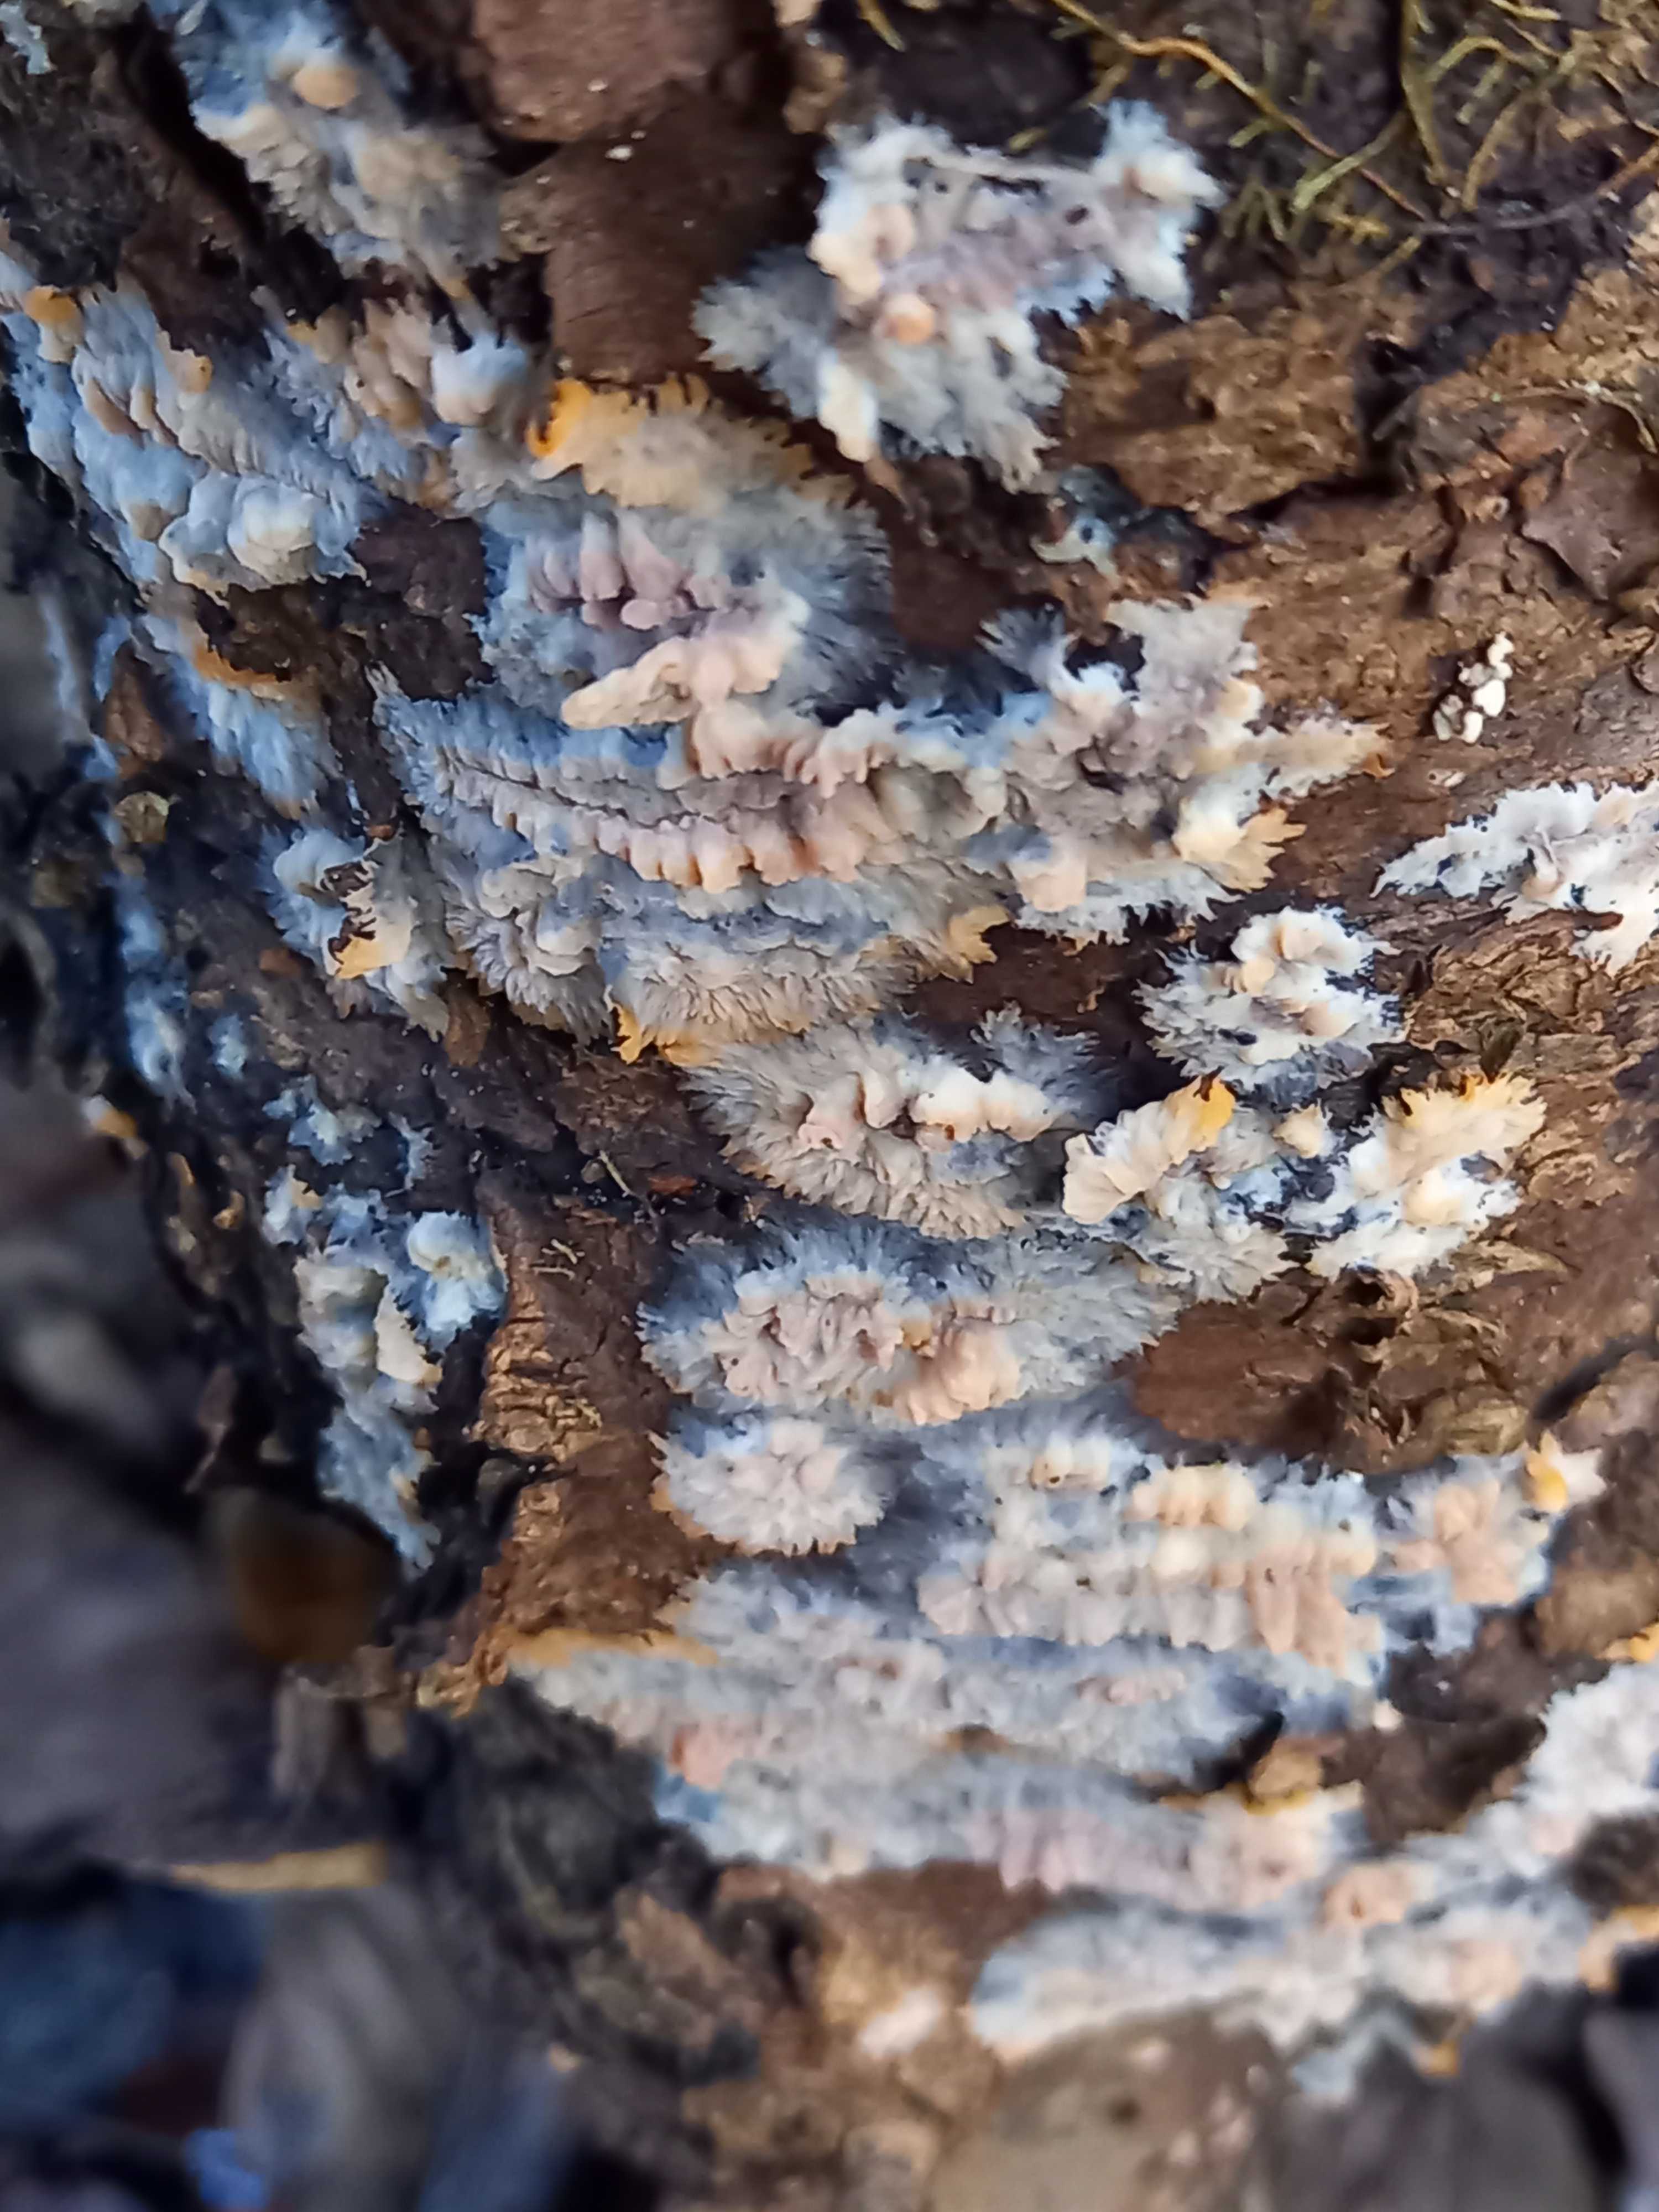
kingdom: Fungi
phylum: Basidiomycota
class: Agaricomycetes
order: Polyporales
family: Meruliaceae
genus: Phlebia
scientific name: Phlebia radiata
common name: stråle-åresvamp
